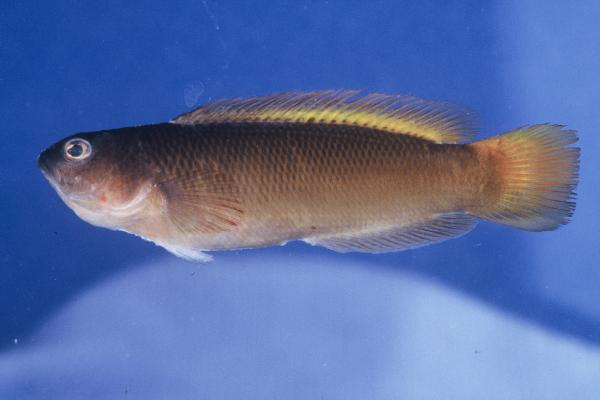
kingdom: Animalia
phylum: Chordata
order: Perciformes
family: Pseudochromidae
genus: Pseudochromis
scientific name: Pseudochromis natalensis
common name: Natal dottyback
